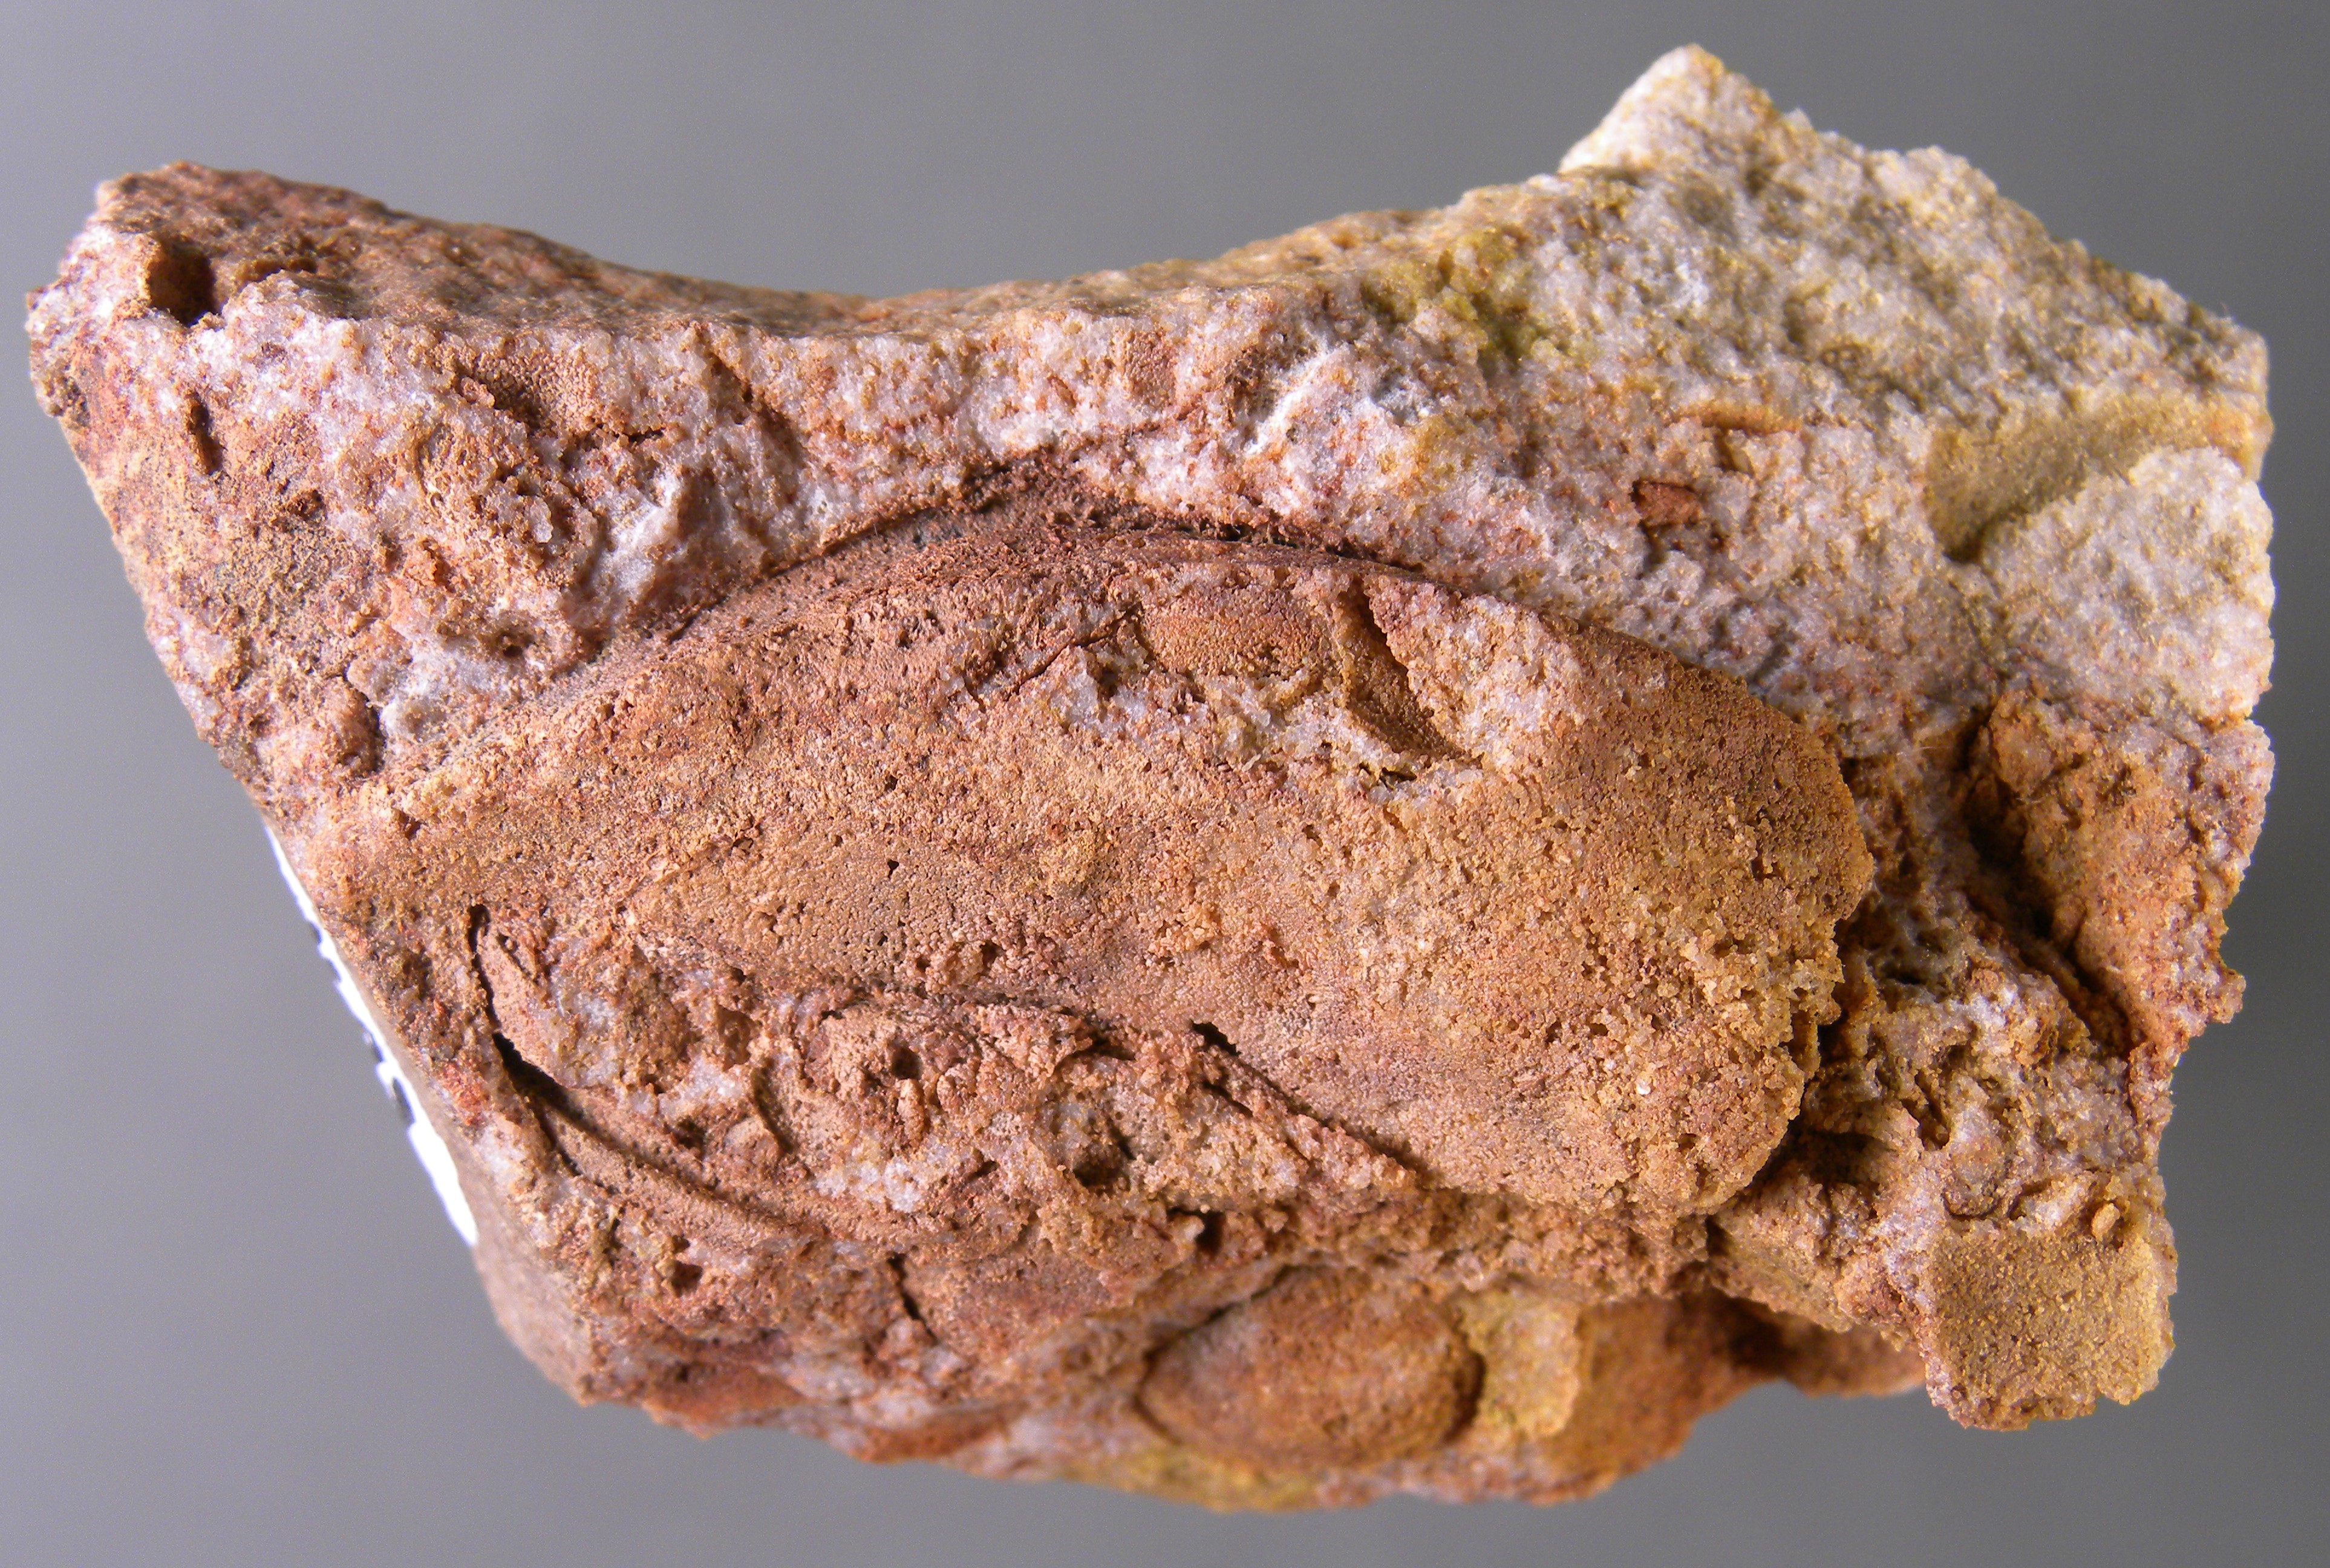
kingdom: Animalia
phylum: Mollusca
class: Bivalvia
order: Modiomorphida
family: Modiomorphidae
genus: Goniophora
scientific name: Goniophora
